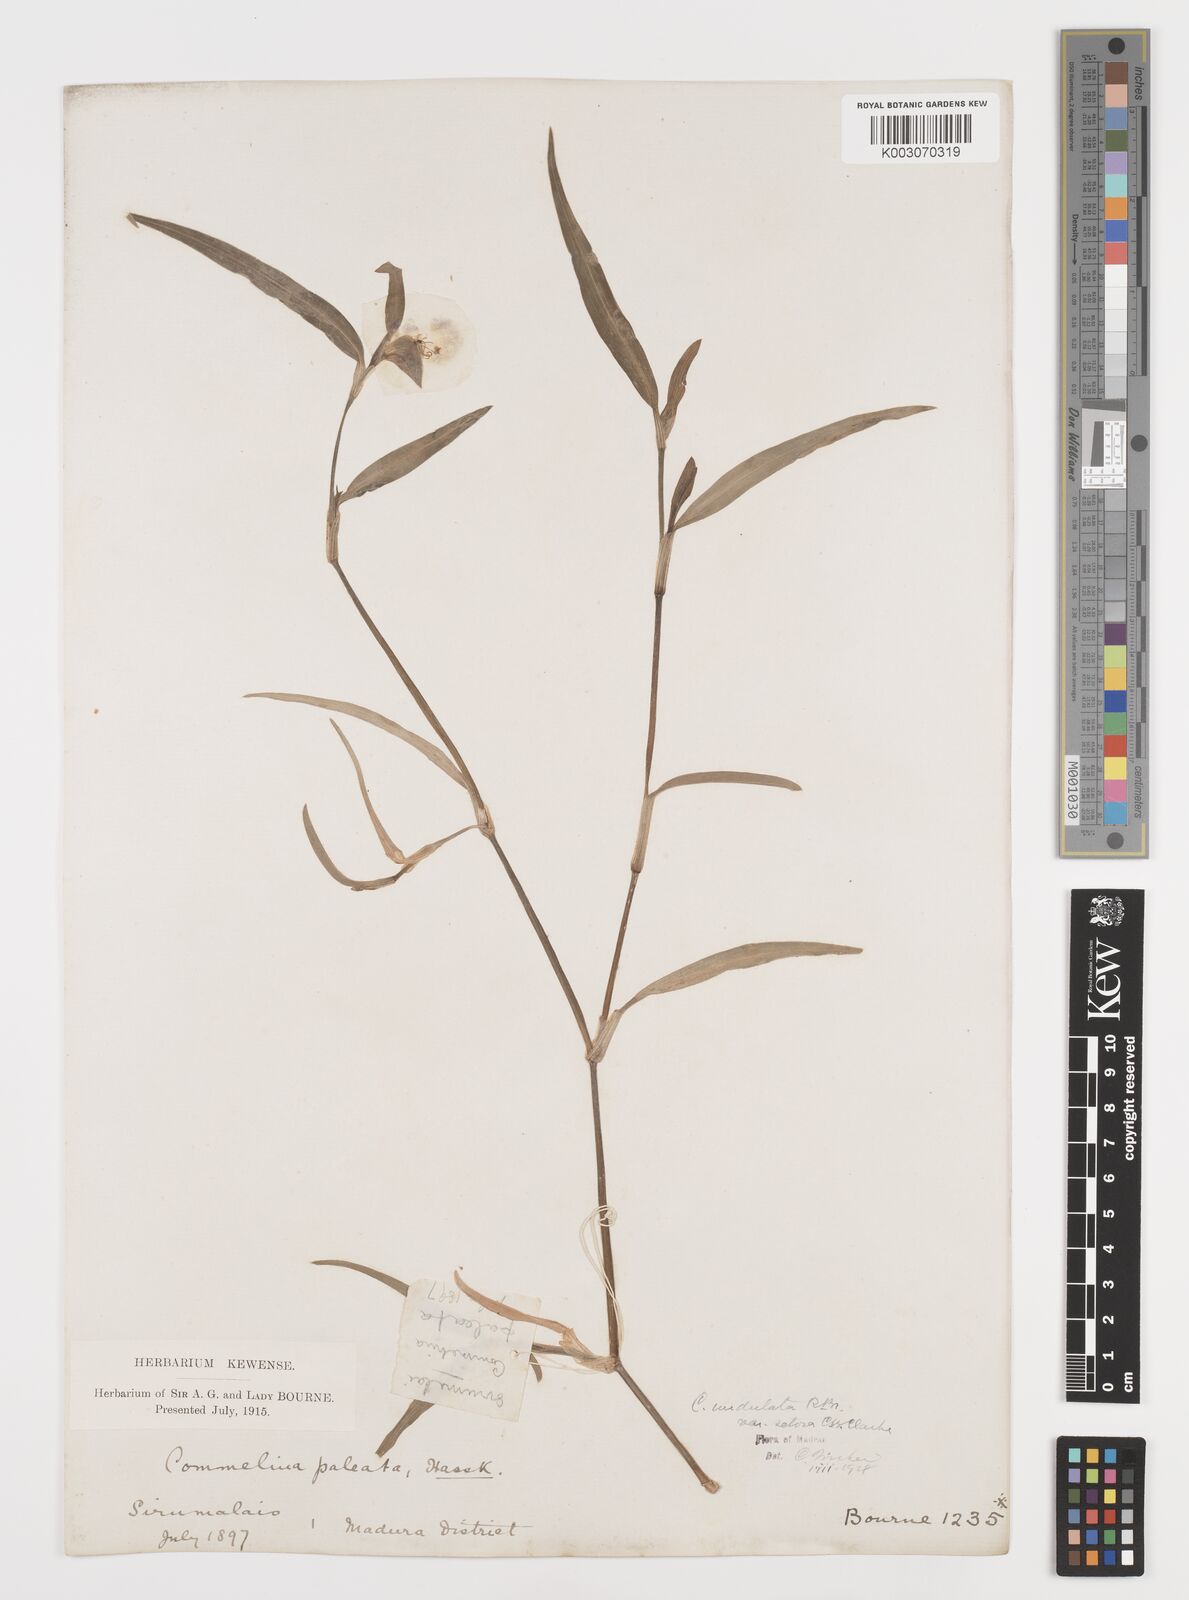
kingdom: Plantae
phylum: Tracheophyta
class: Liliopsida
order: Commelinales
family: Commelinaceae
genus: Commelina
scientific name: Commelina chamissonis
